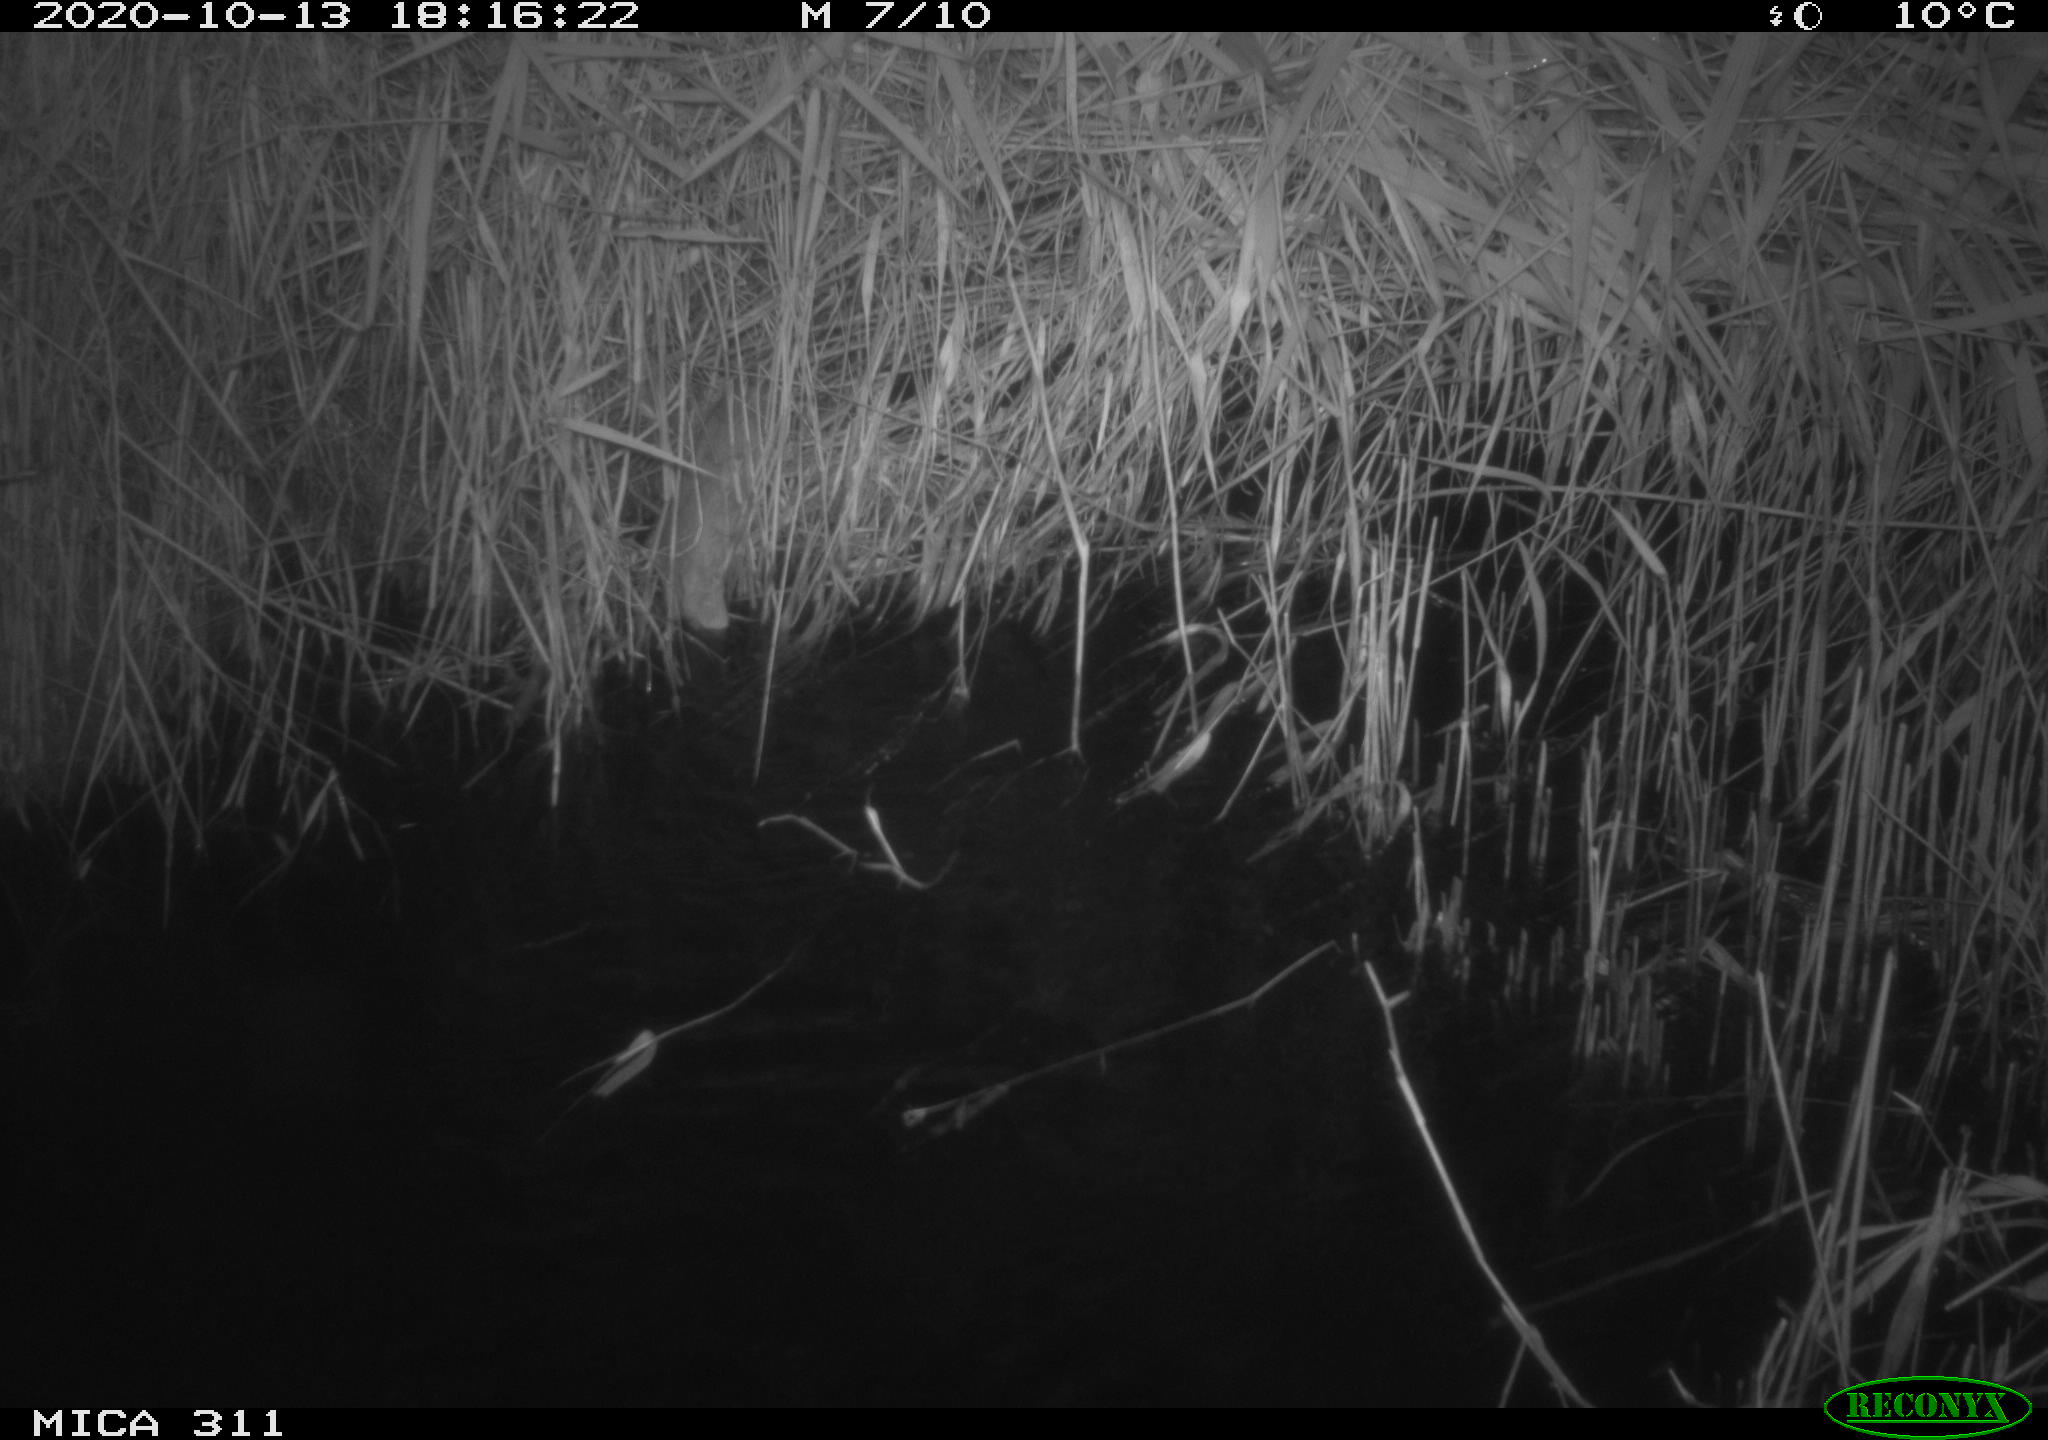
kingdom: Animalia
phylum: Chordata
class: Mammalia
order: Rodentia
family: Muridae
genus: Rattus
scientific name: Rattus norvegicus
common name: Brown rat
